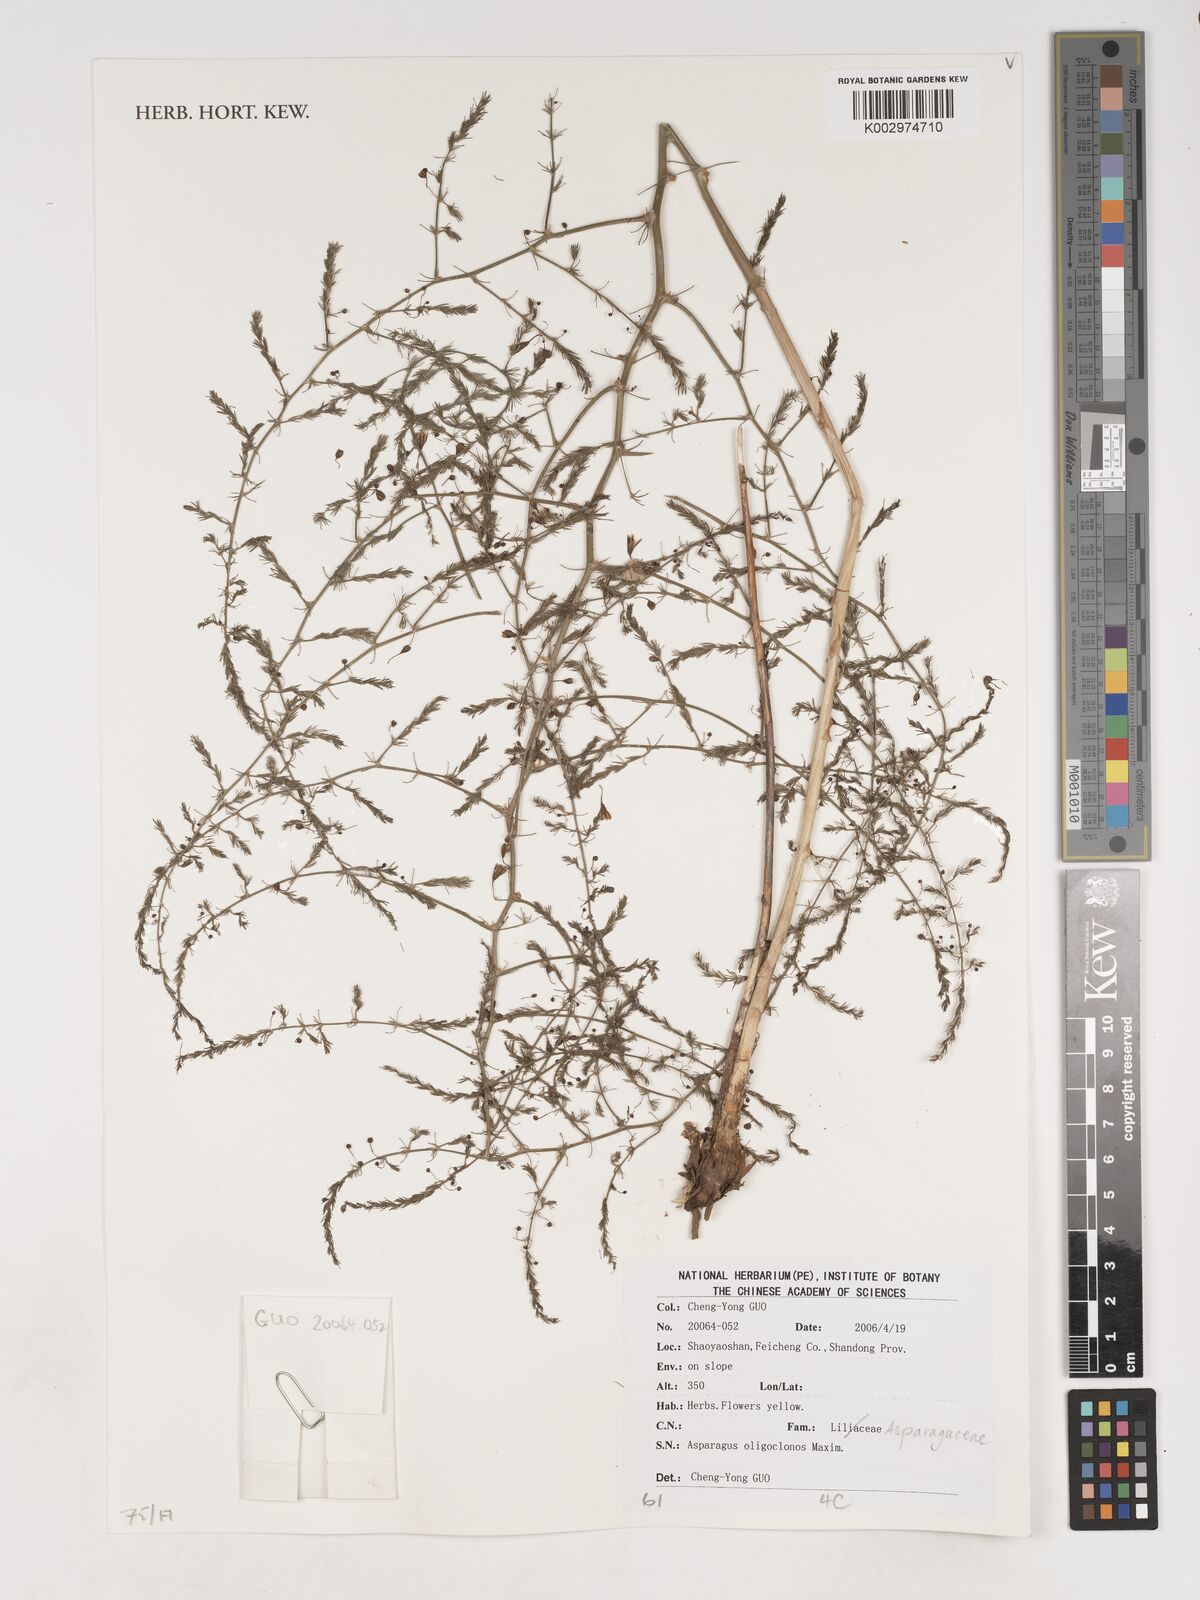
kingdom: Plantae
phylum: Tracheophyta
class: Liliopsida
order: Asparagales
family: Asparagaceae
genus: Asparagus
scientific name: Asparagus oligoclonos
